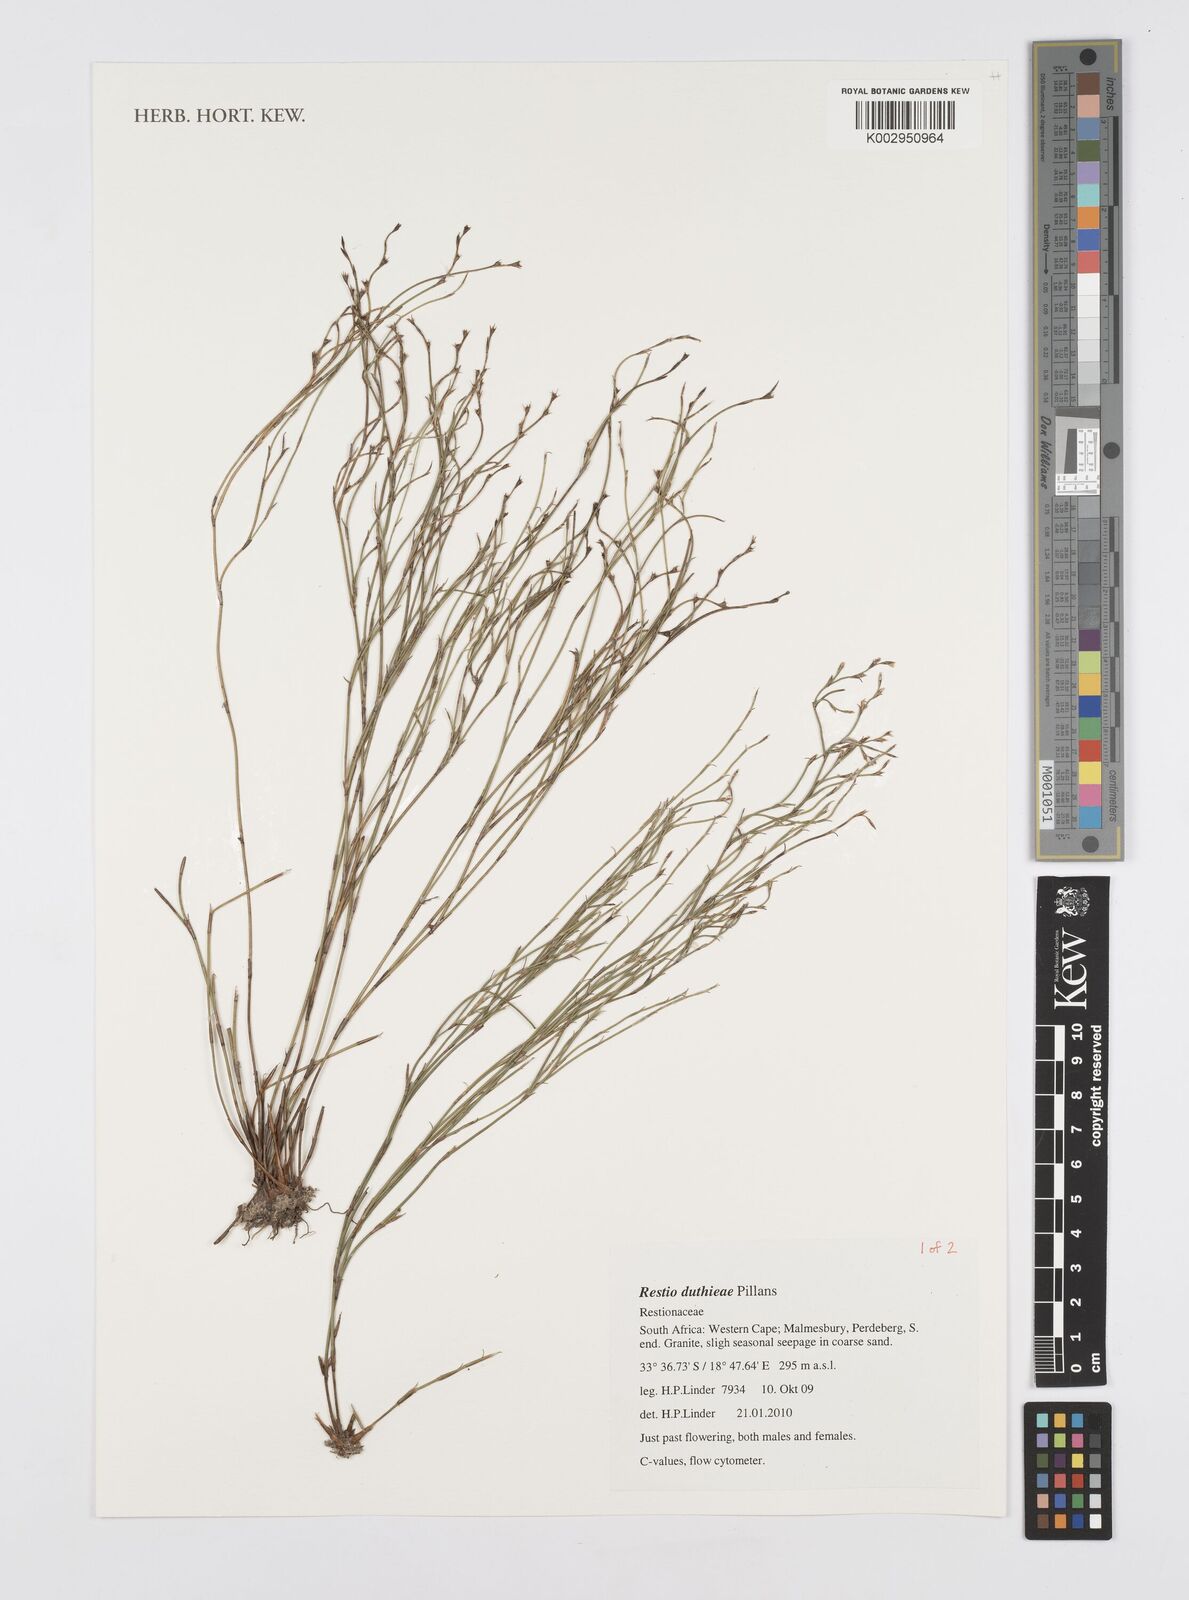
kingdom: Plantae
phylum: Tracheophyta
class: Liliopsida
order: Poales
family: Restionaceae
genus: Restio
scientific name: Restio duthieae
